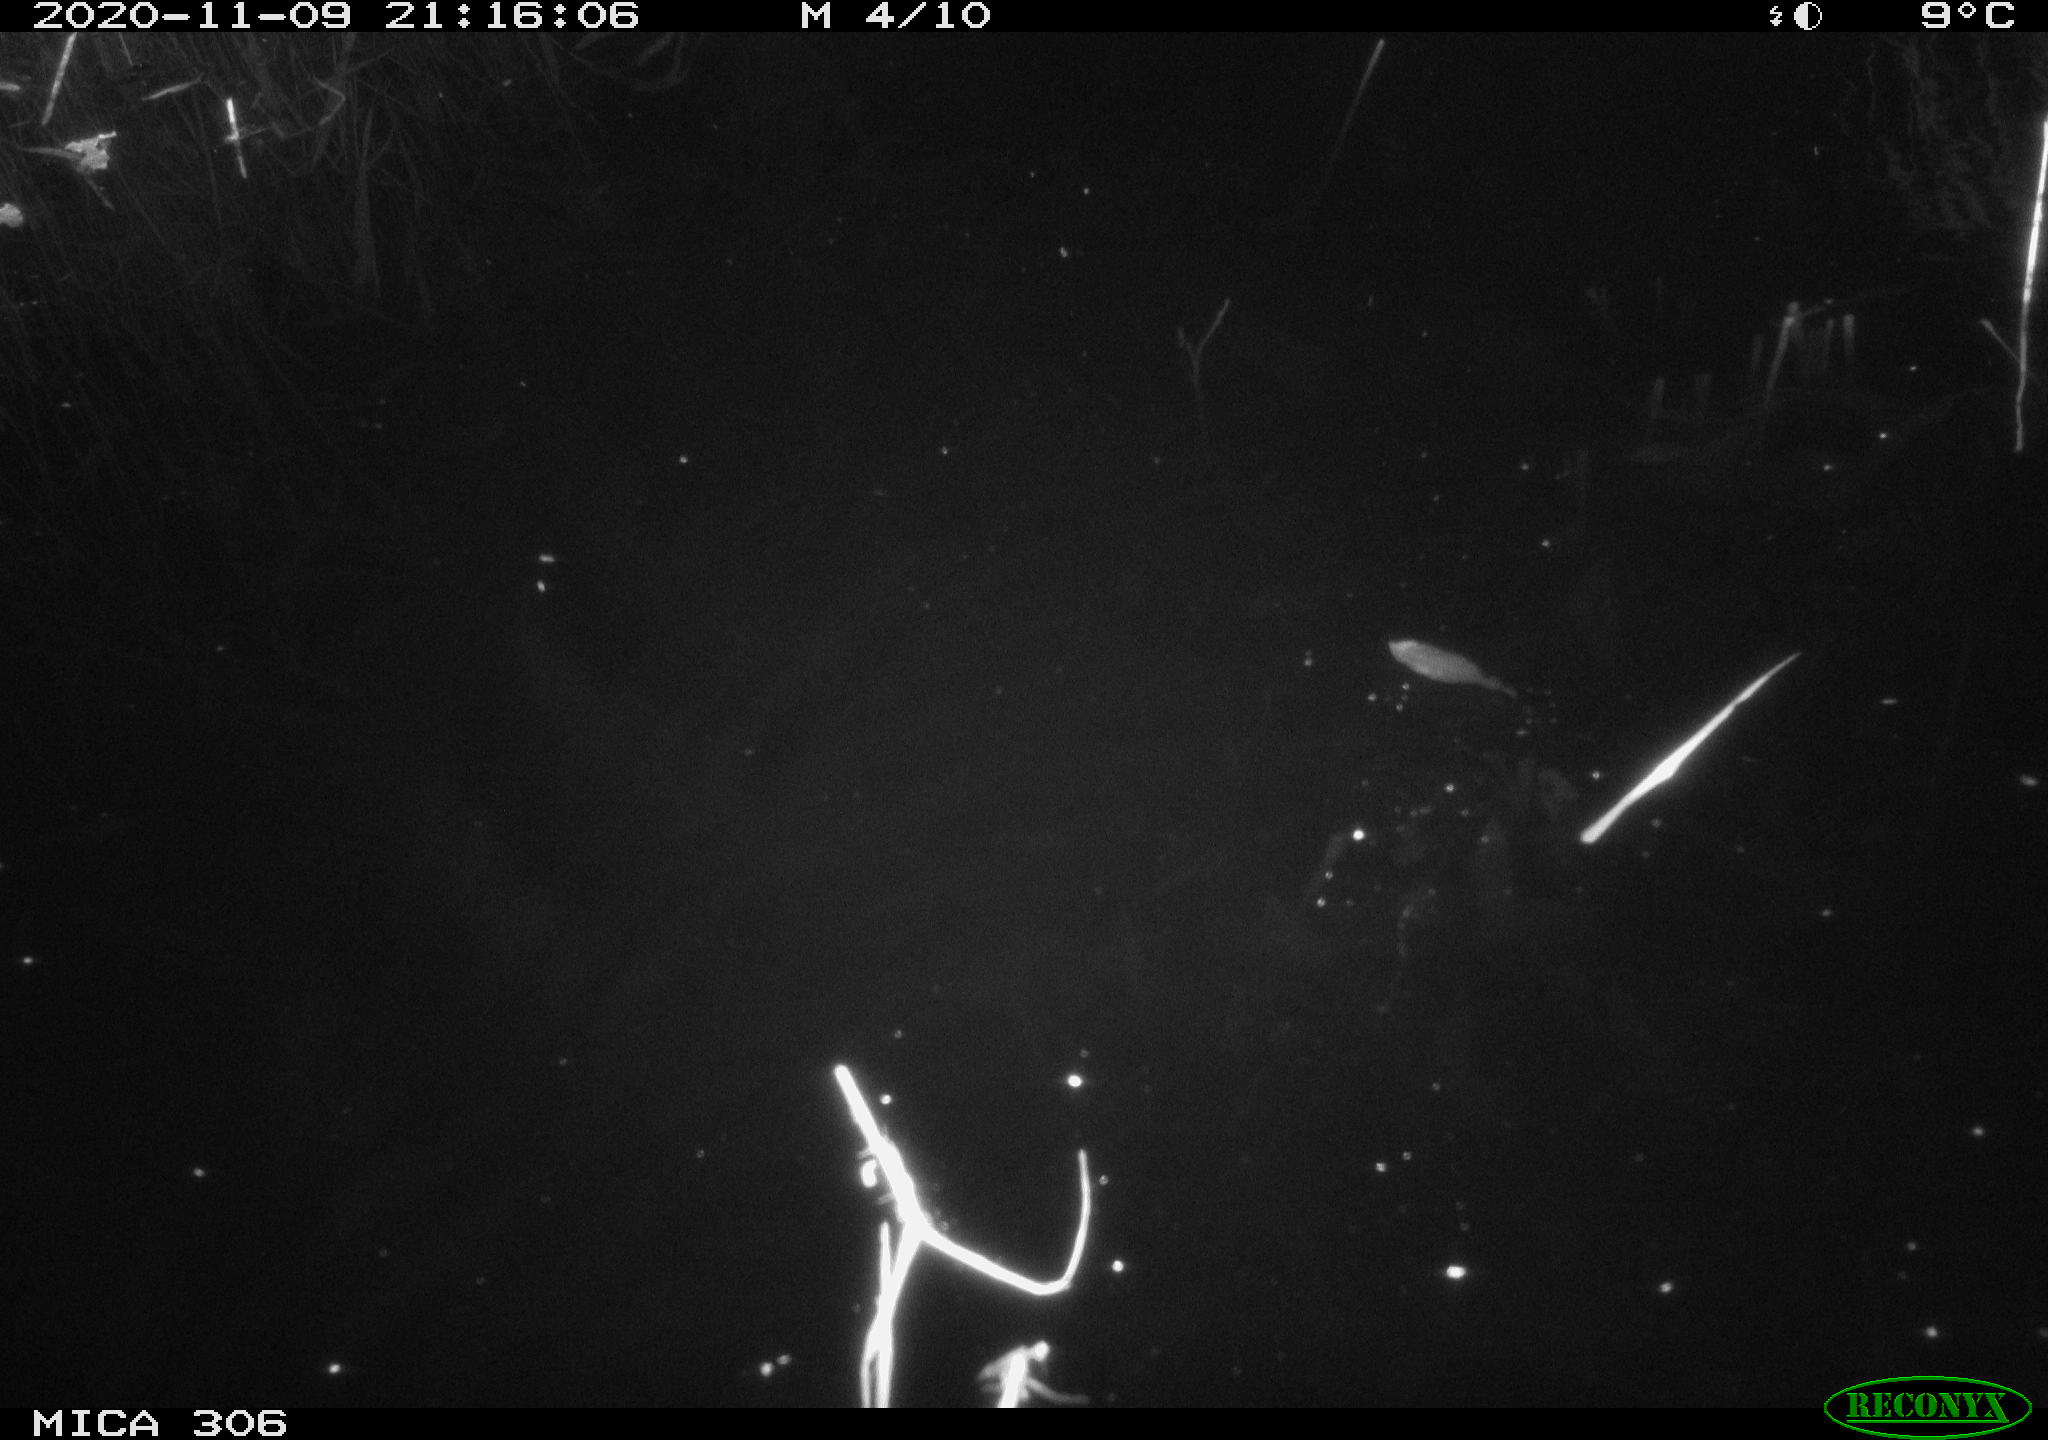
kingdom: Animalia
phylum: Chordata
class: Mammalia
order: Rodentia
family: Cricetidae
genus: Ondatra
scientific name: Ondatra zibethicus
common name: Muskrat
